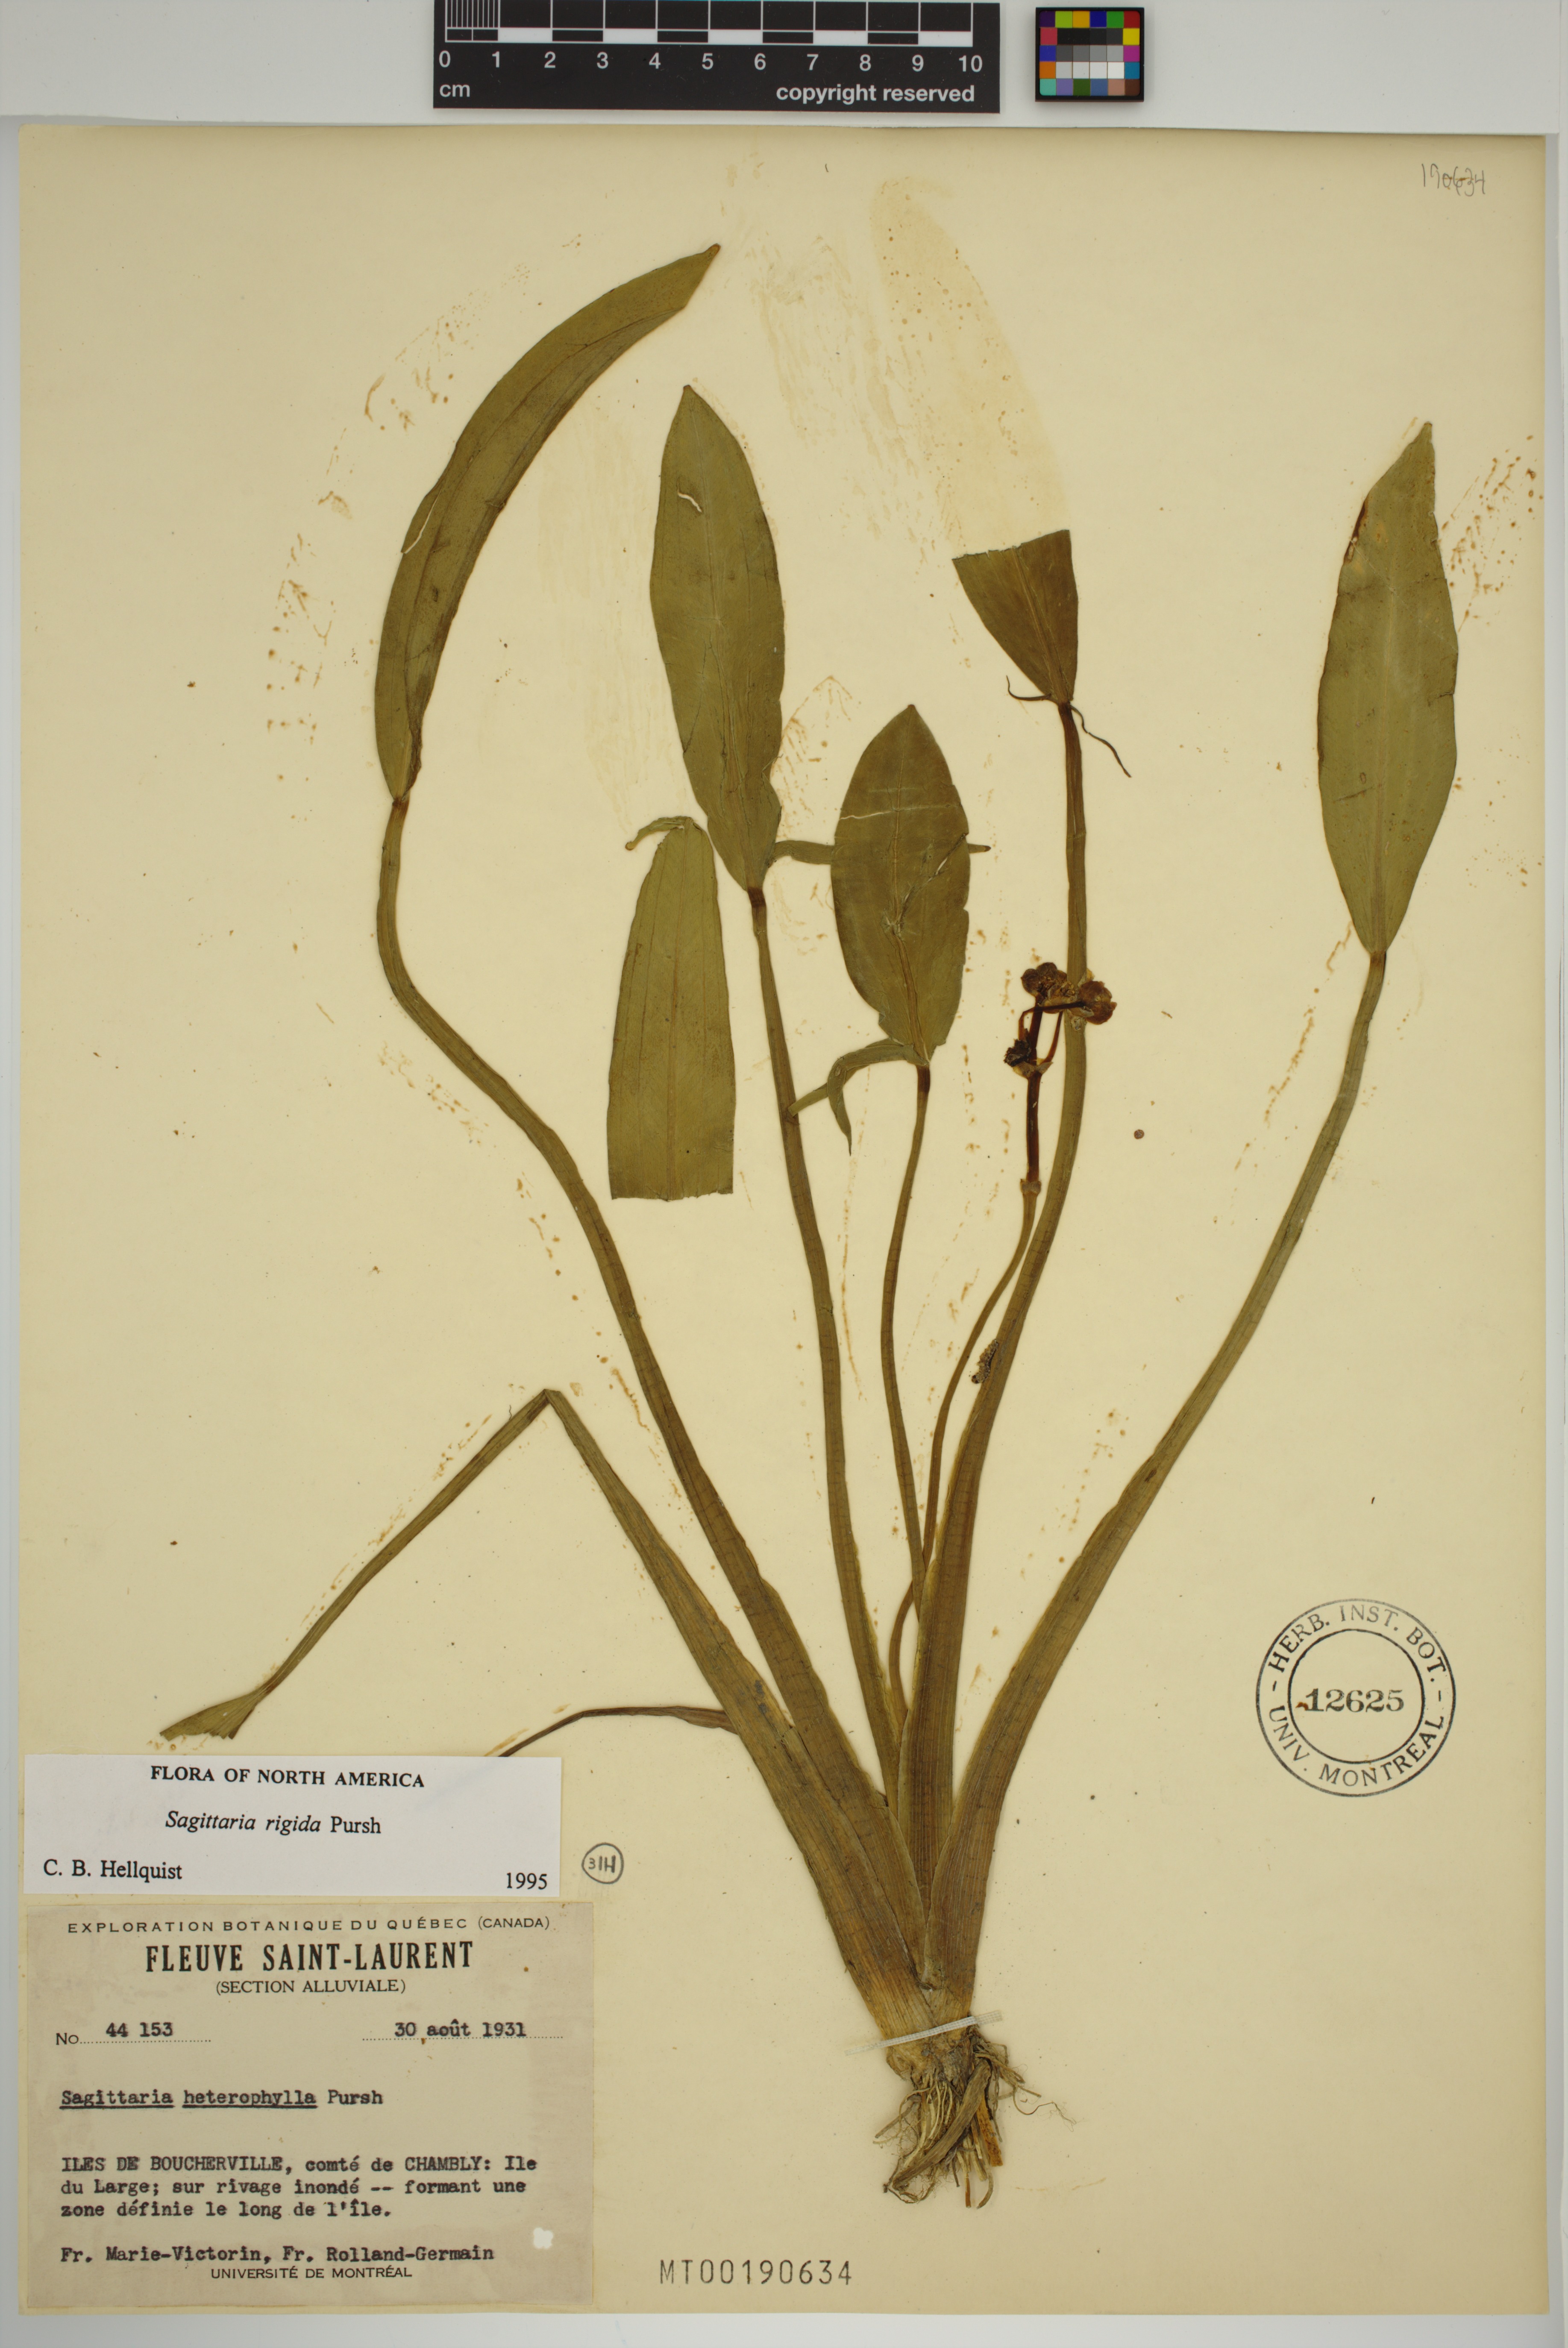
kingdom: Plantae
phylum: Tracheophyta
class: Liliopsida
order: Alismatales
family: Alismataceae
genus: Sagittaria
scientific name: Sagittaria rigida
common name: Canadian arrowhead
